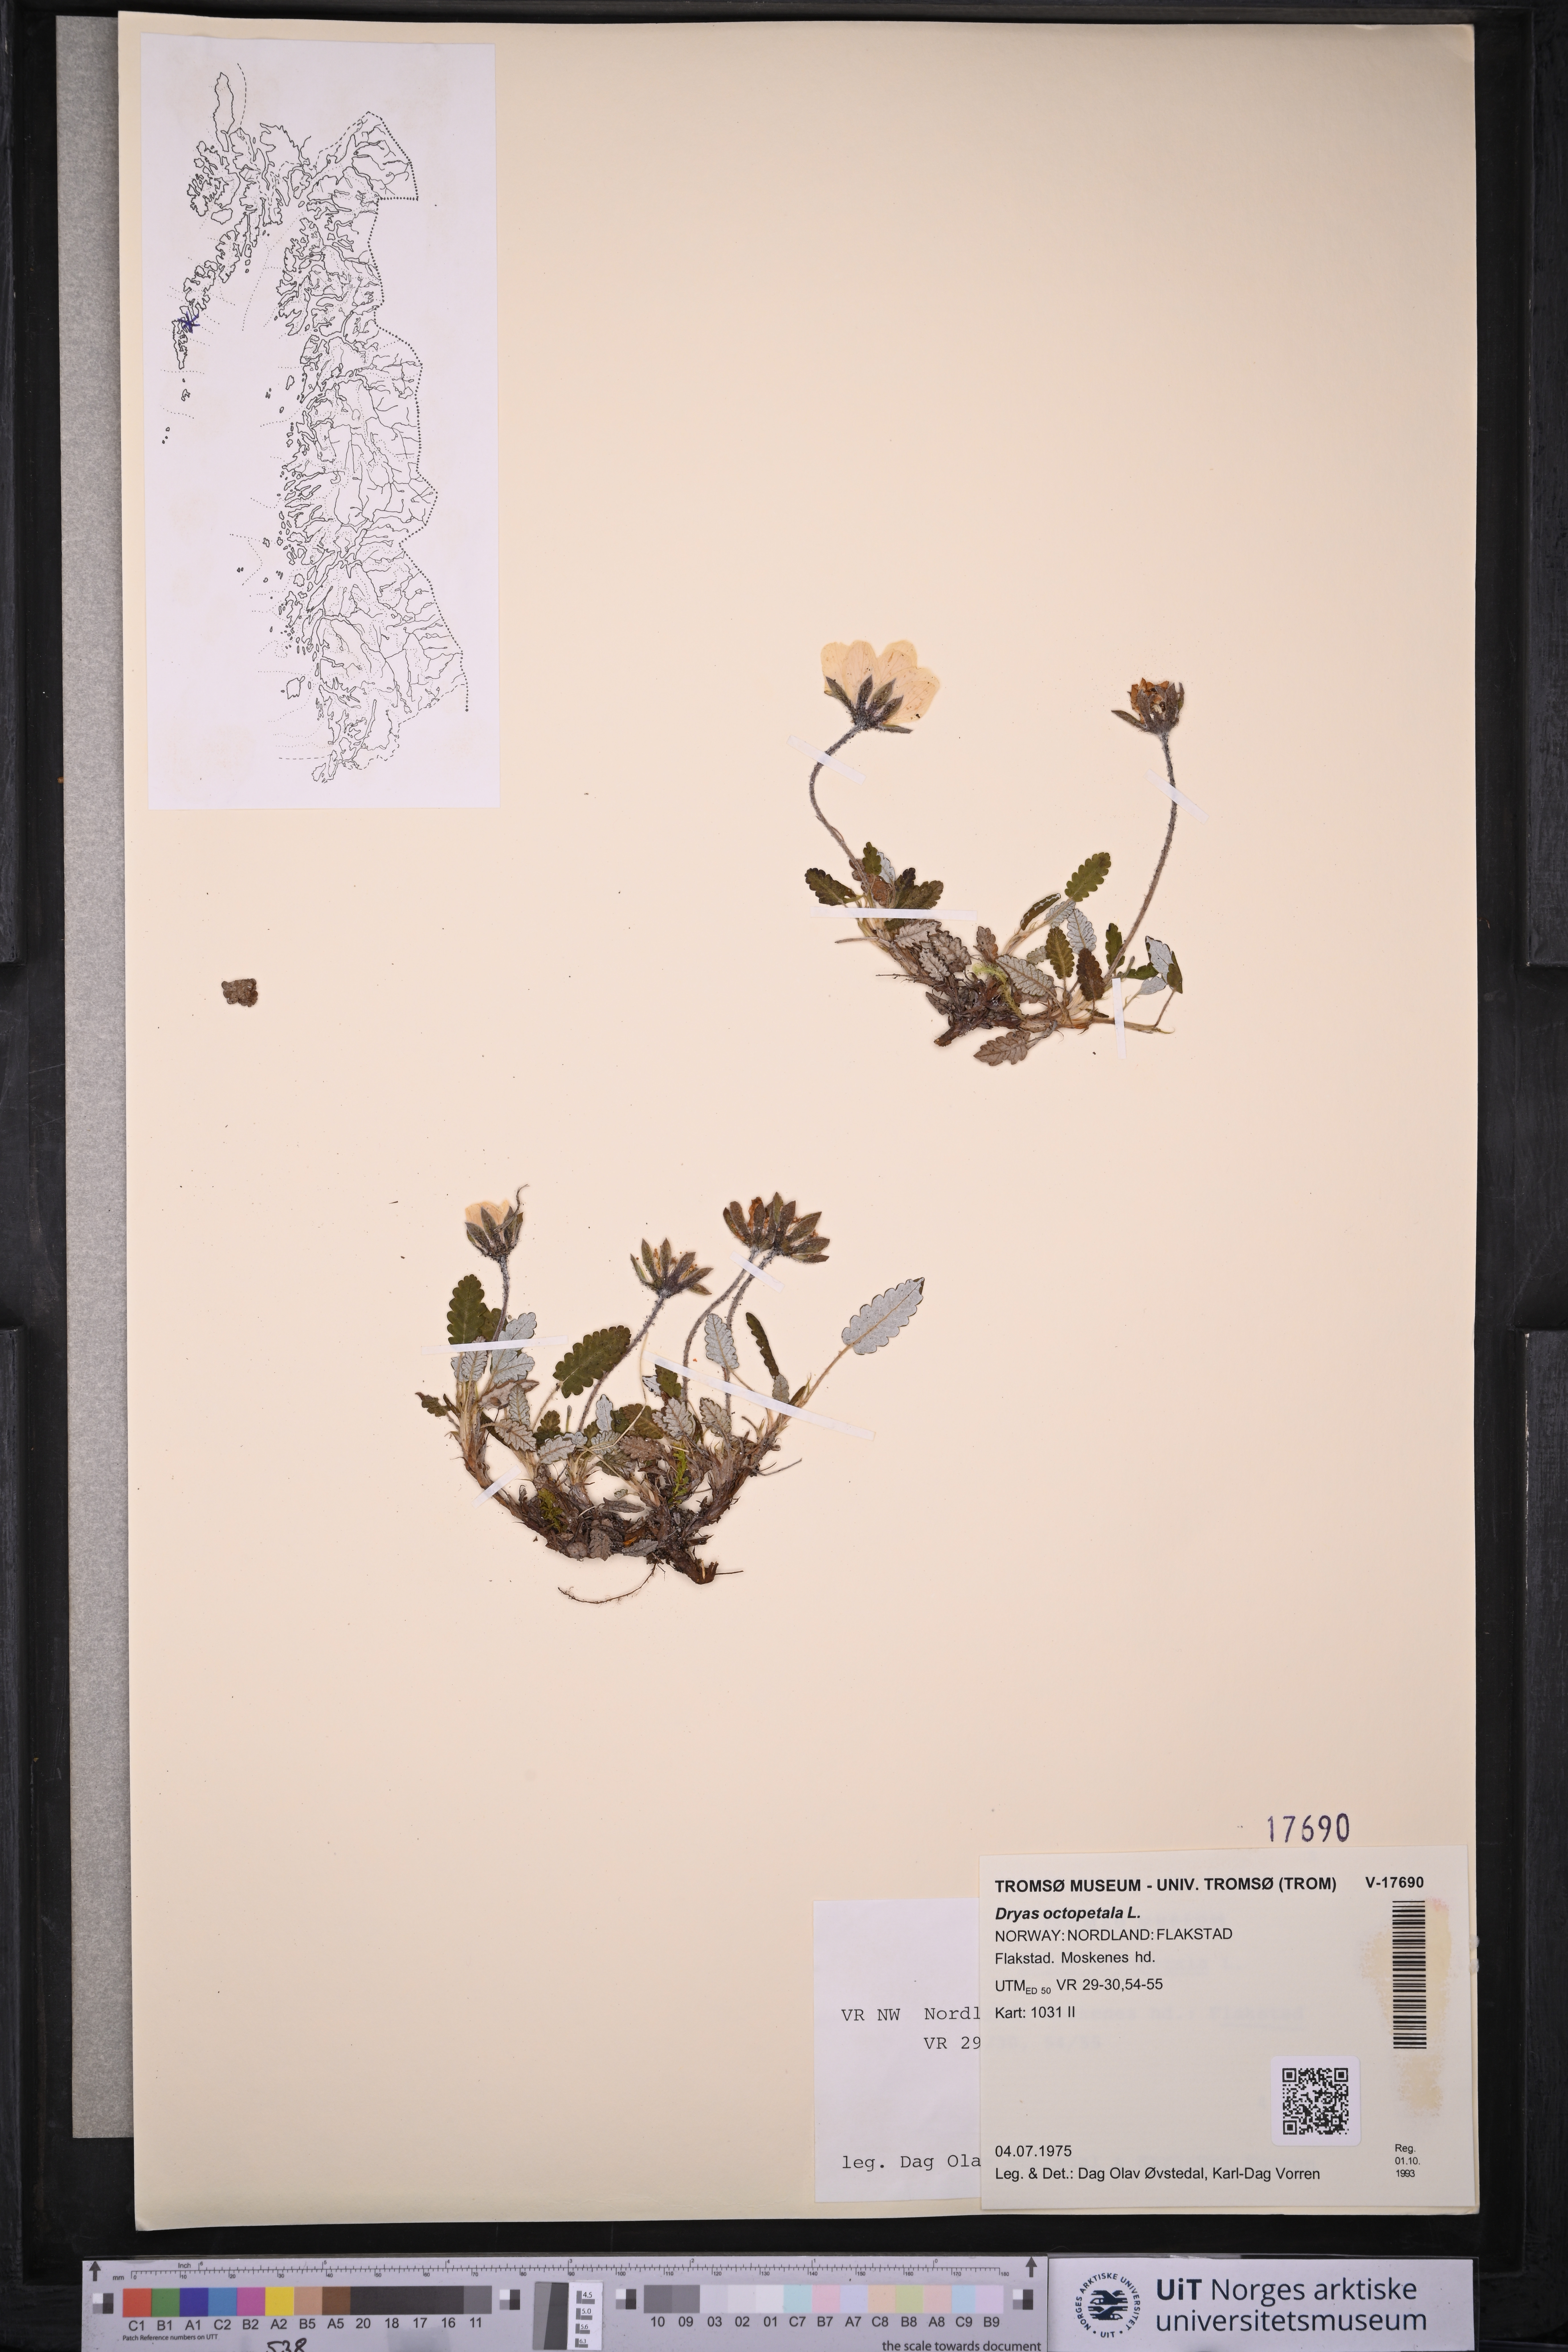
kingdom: Plantae
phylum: Tracheophyta
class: Magnoliopsida
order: Rosales
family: Rosaceae
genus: Dryas
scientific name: Dryas octopetala
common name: Eight-petal mountain-avens
